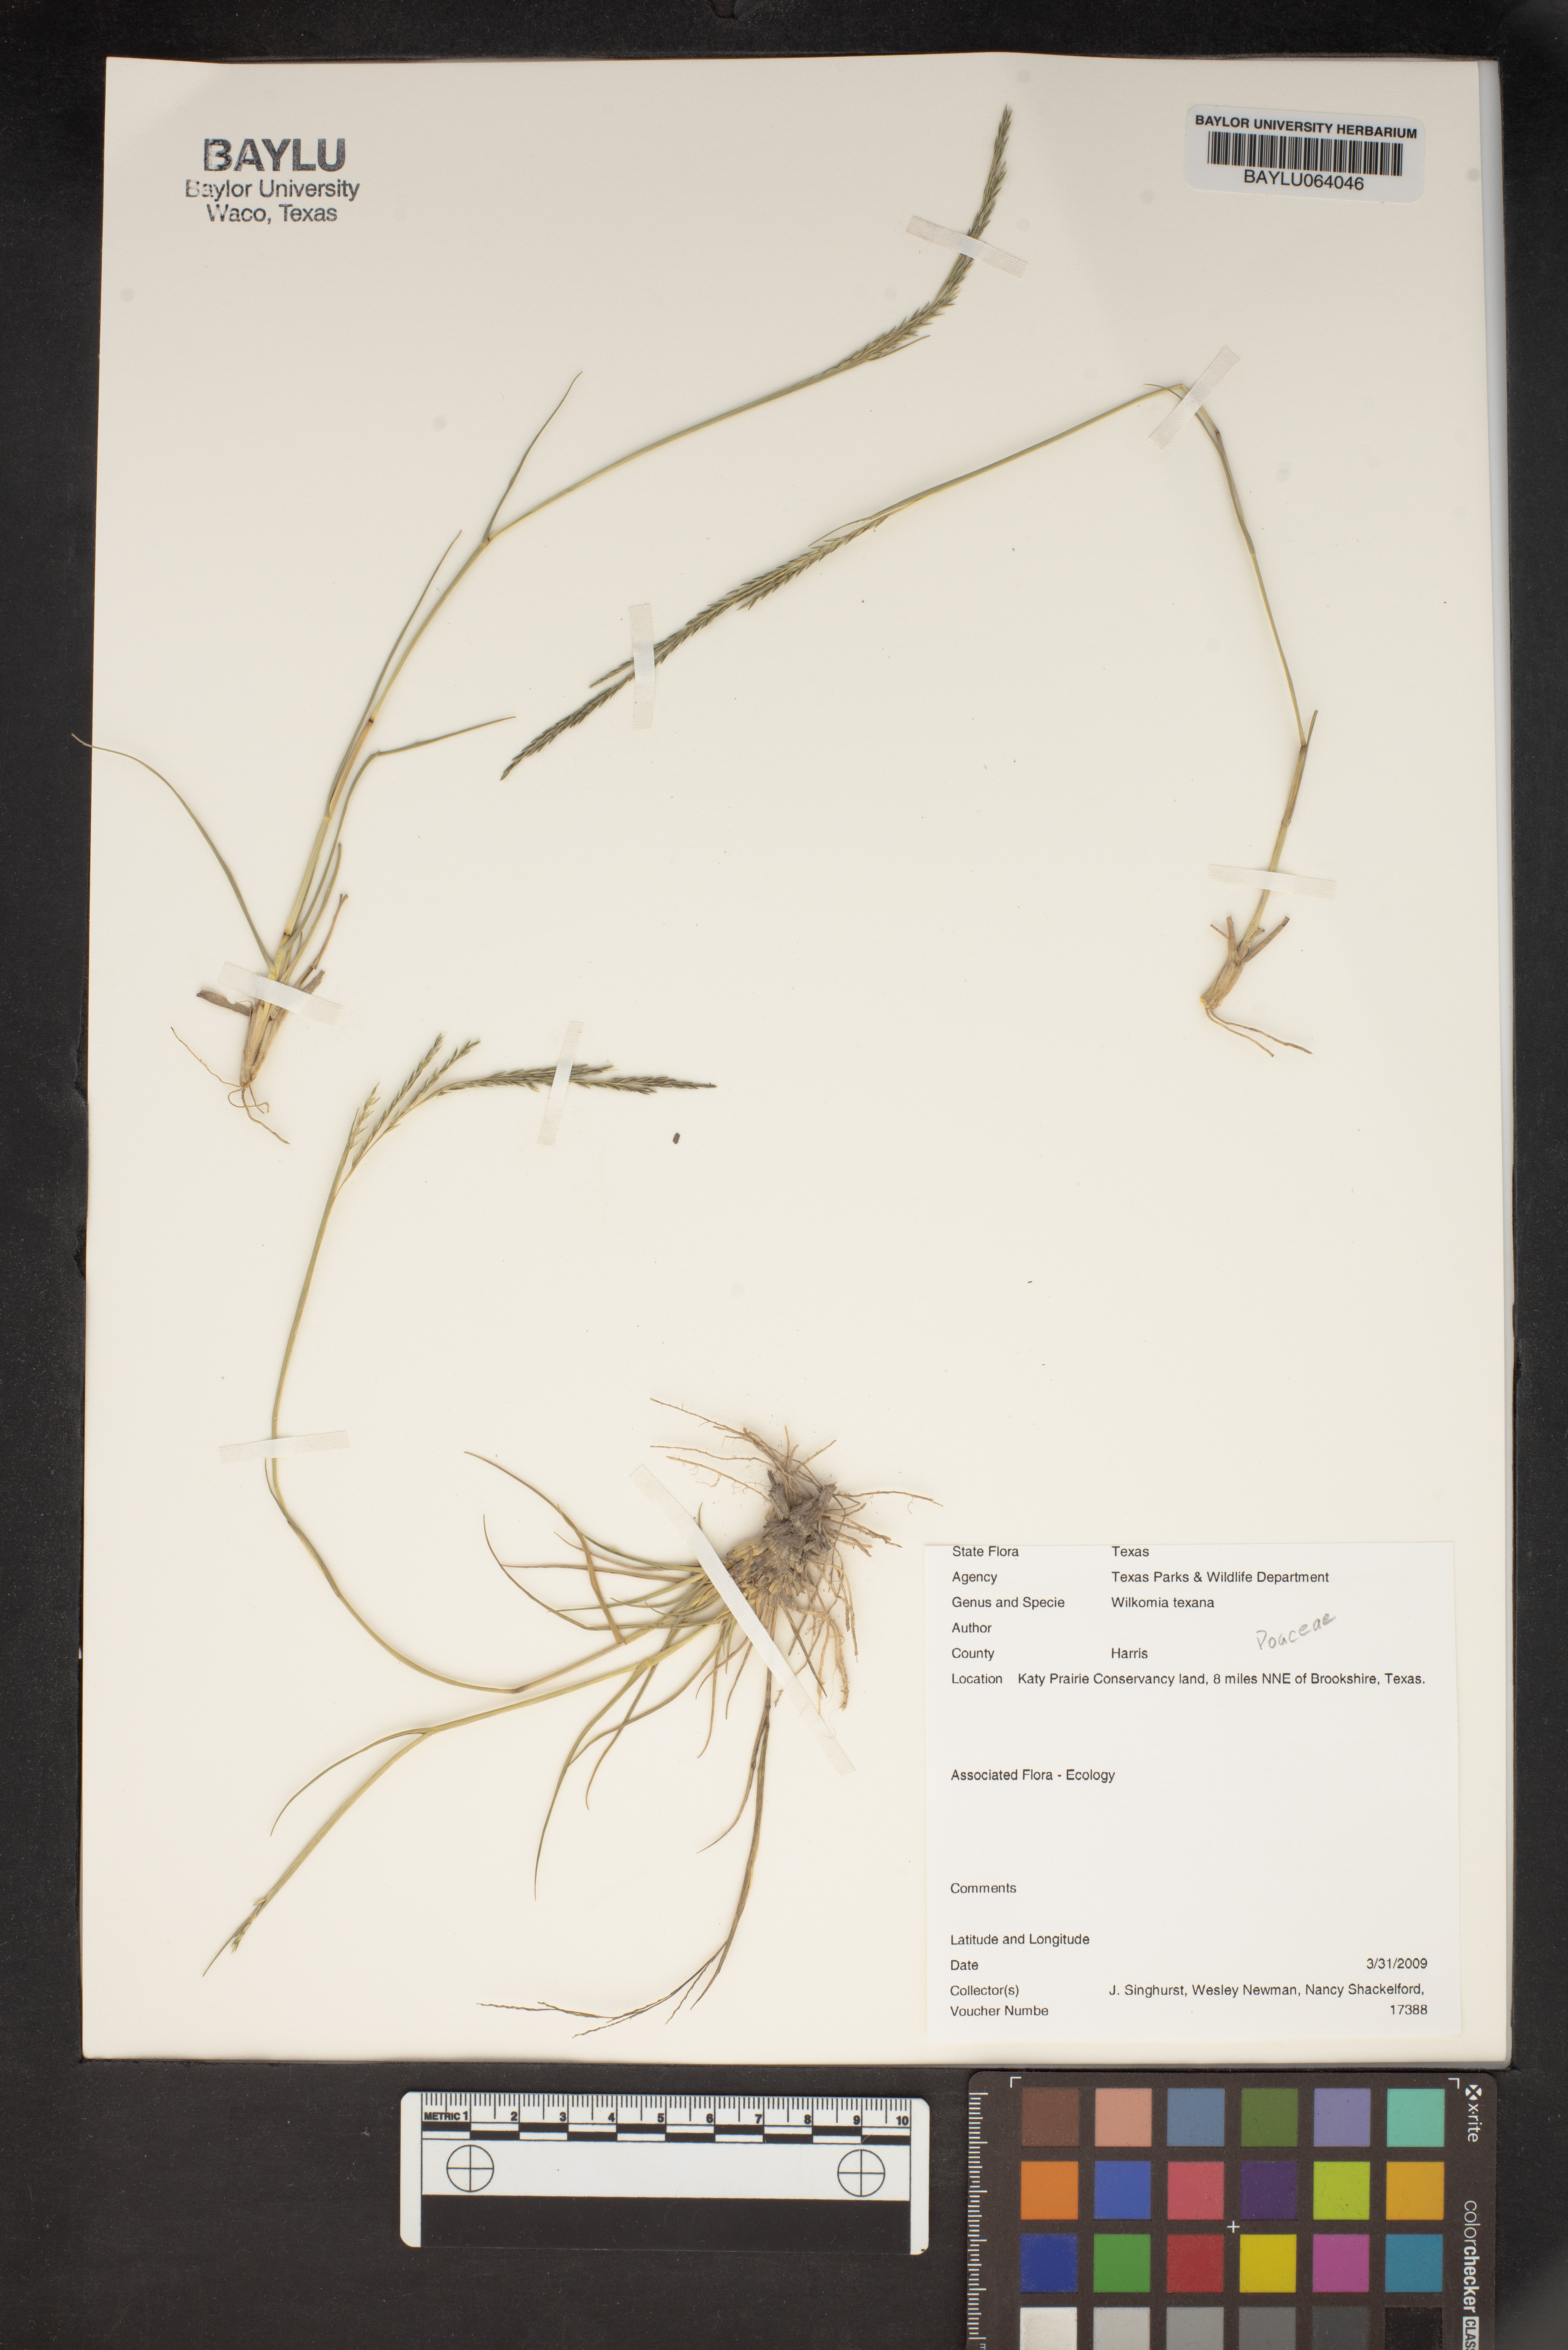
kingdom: Plantae
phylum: Tracheophyta
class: Liliopsida
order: Poales
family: Poaceae
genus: Willkommia
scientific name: Willkommia texana
